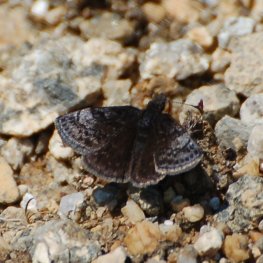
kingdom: Animalia
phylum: Arthropoda
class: Insecta
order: Lepidoptera
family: Hesperiidae
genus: Erynnis
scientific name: Erynnis icelus
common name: Dreamy Duskywing
